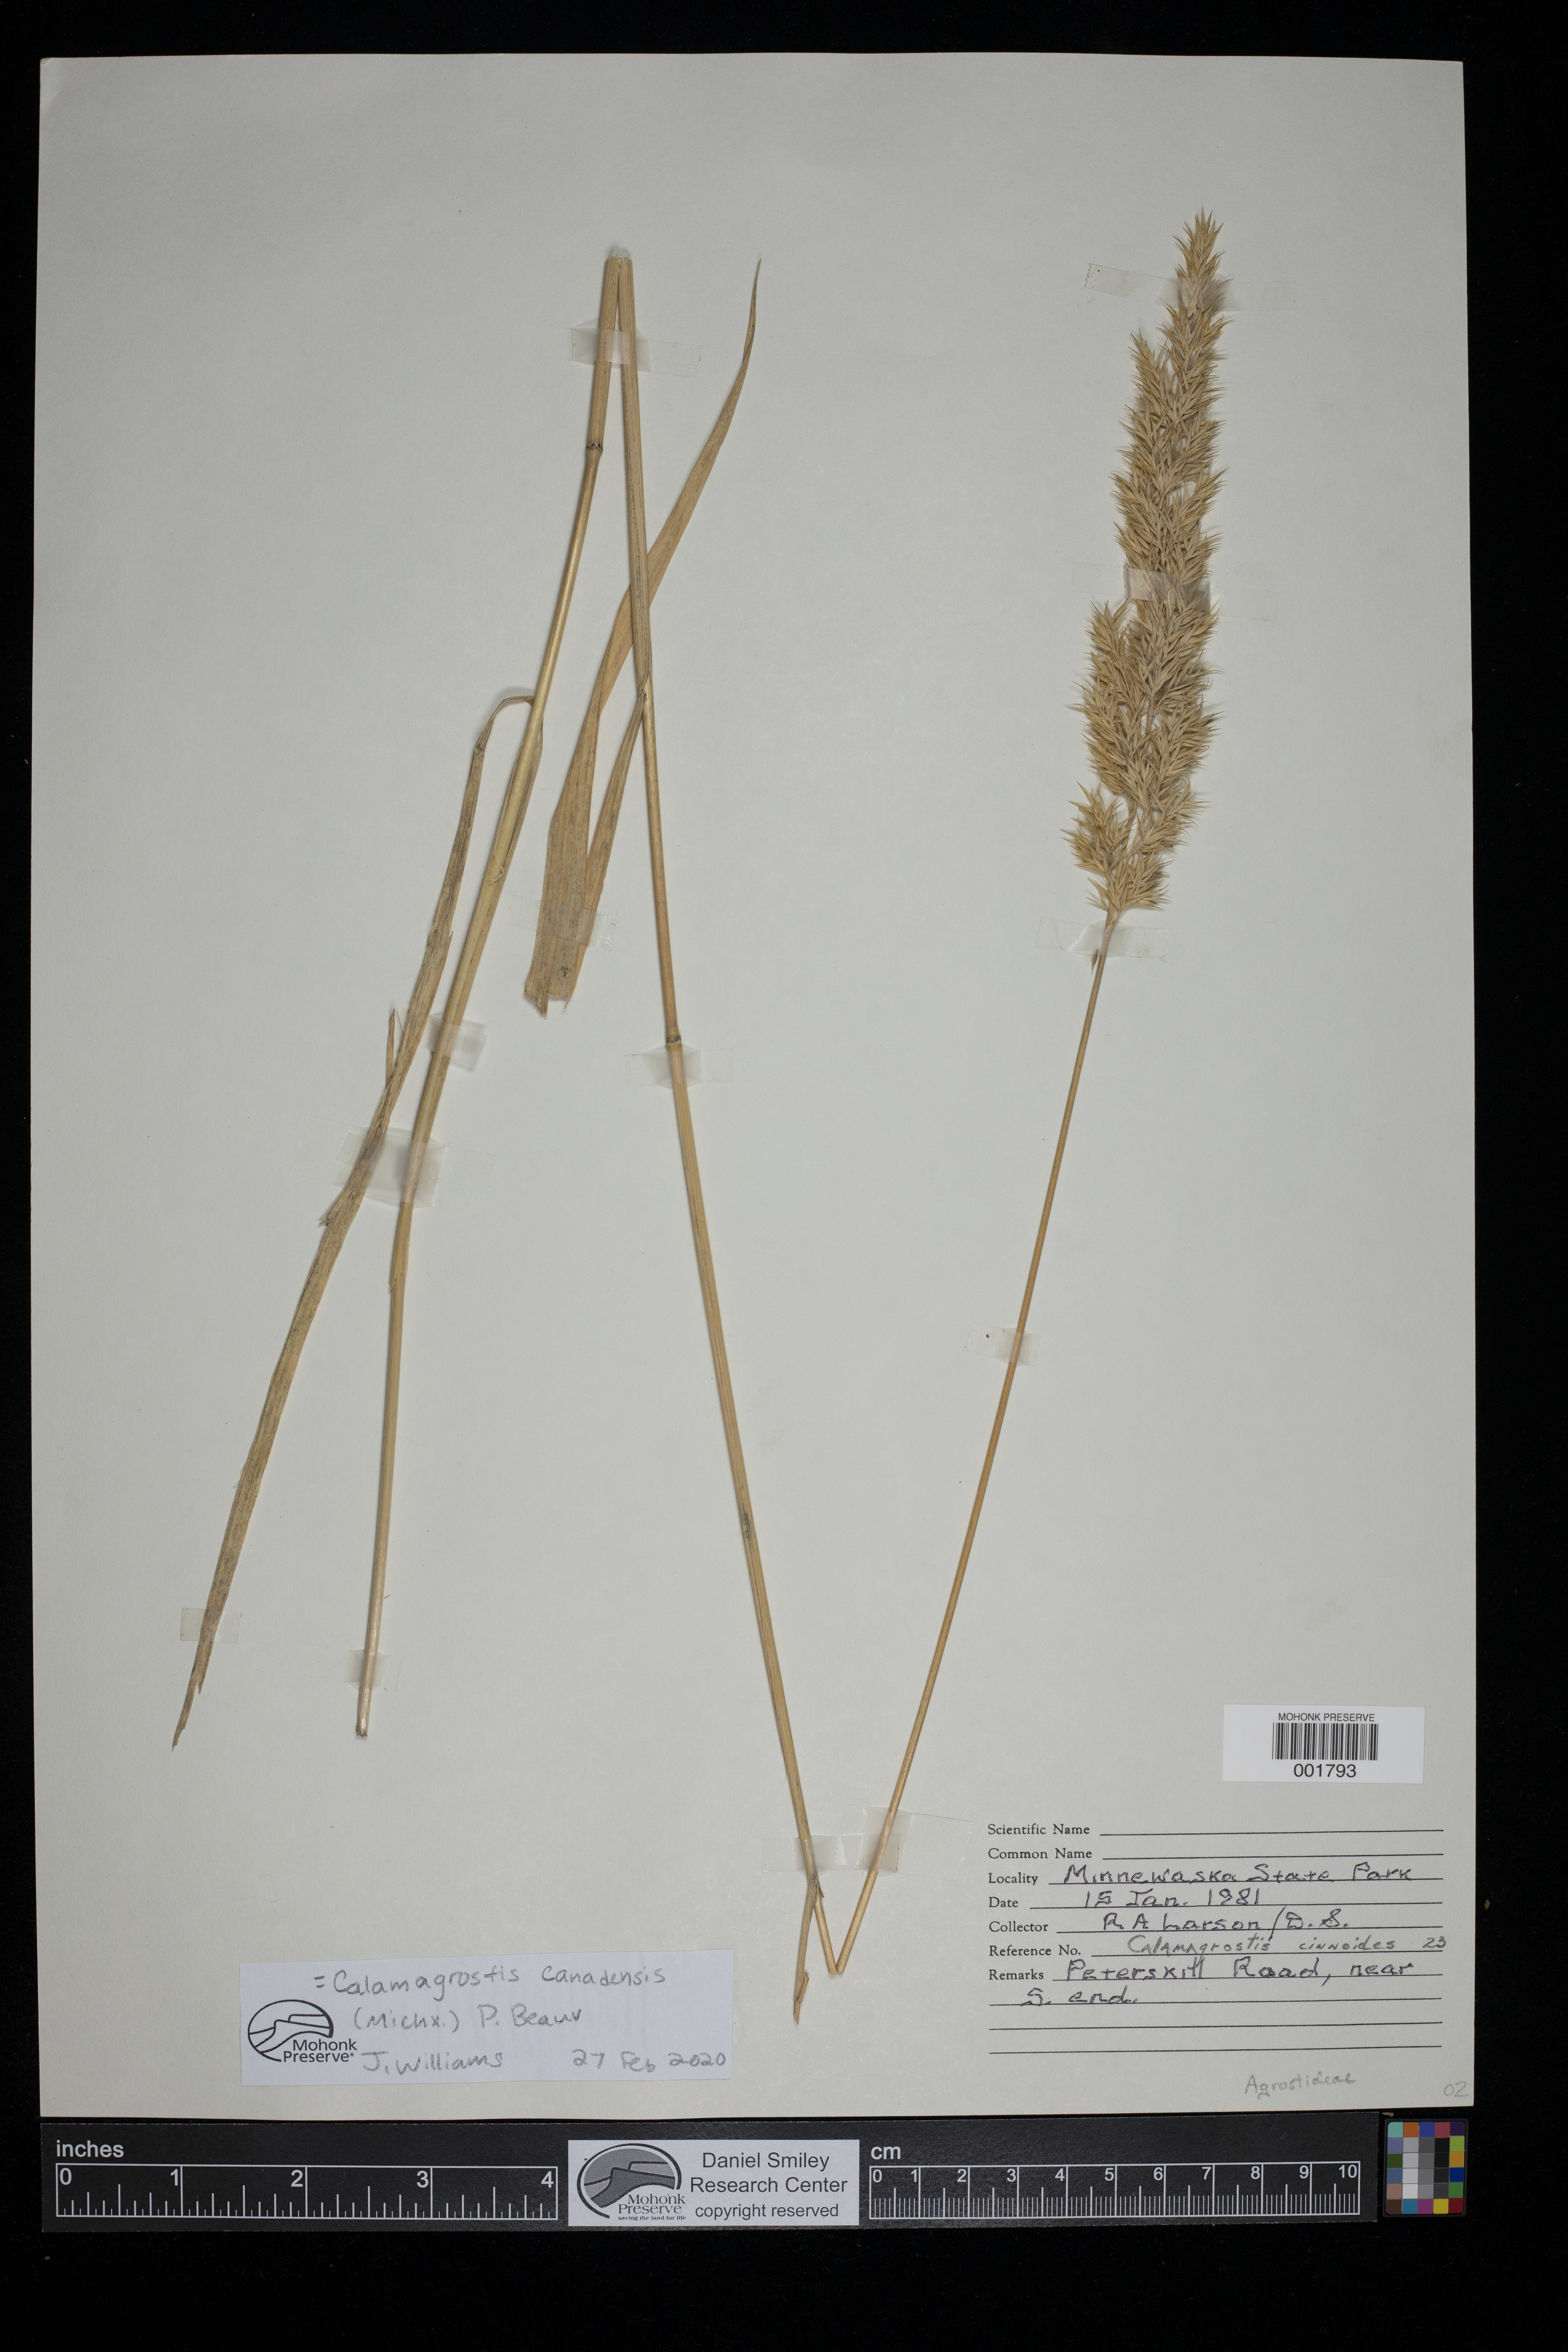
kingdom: Plantae
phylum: Tracheophyta
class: Liliopsida
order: Poales
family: Poaceae
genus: Calamagrostis
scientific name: Calamagrostis canadensis
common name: Canada bluejoint
